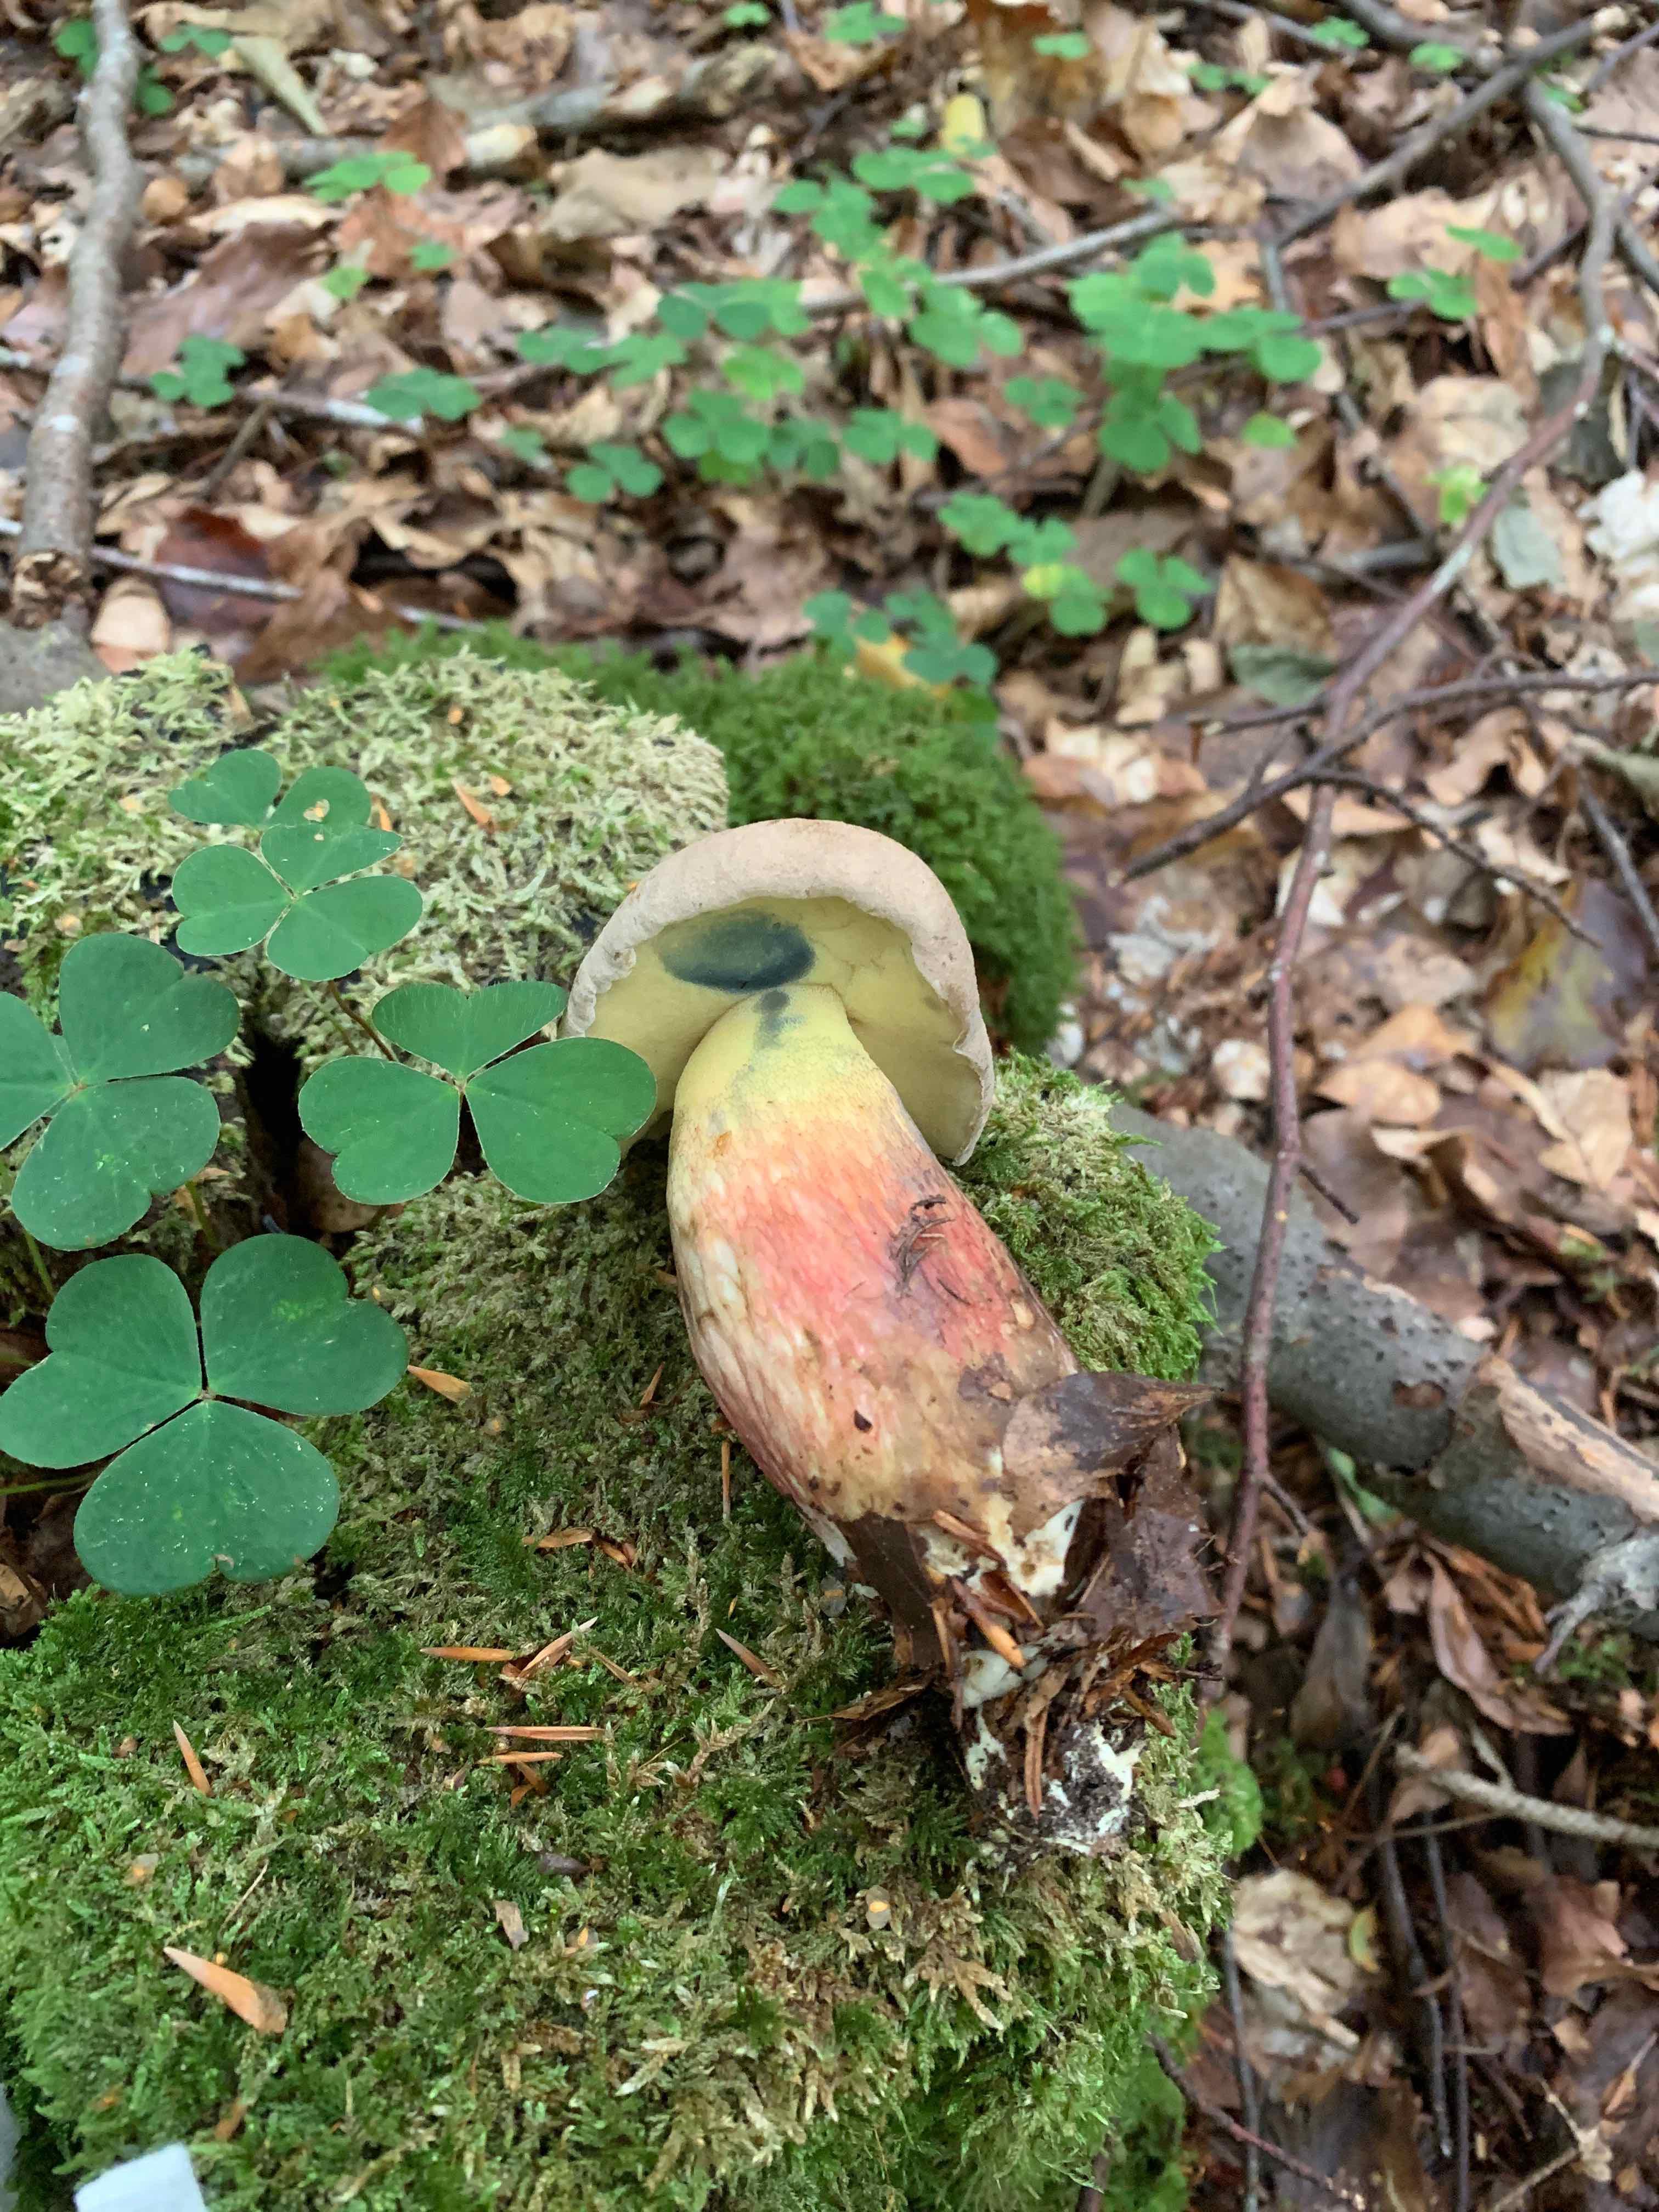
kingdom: Fungi
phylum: Basidiomycota
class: Agaricomycetes
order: Boletales
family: Boletaceae
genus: Caloboletus
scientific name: Caloboletus calopus
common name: skønfodet rørhat
